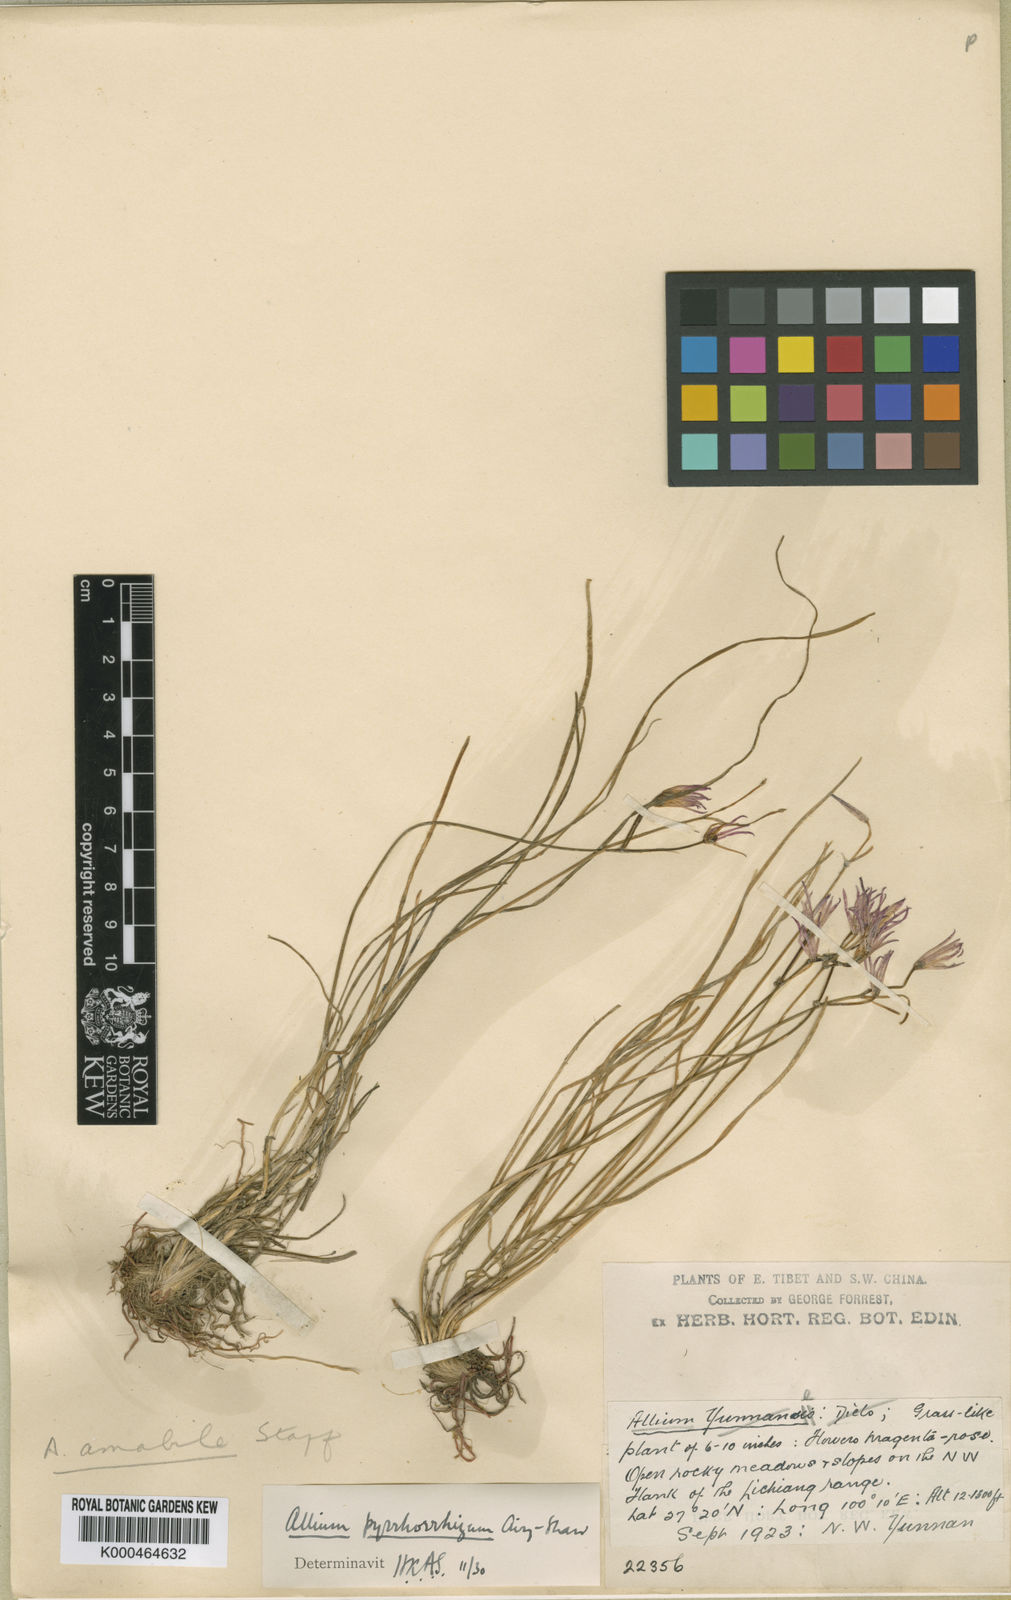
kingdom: Plantae
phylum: Tracheophyta
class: Liliopsida
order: Asparagales
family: Amaryllidaceae
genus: Allium
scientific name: Allium mairei
